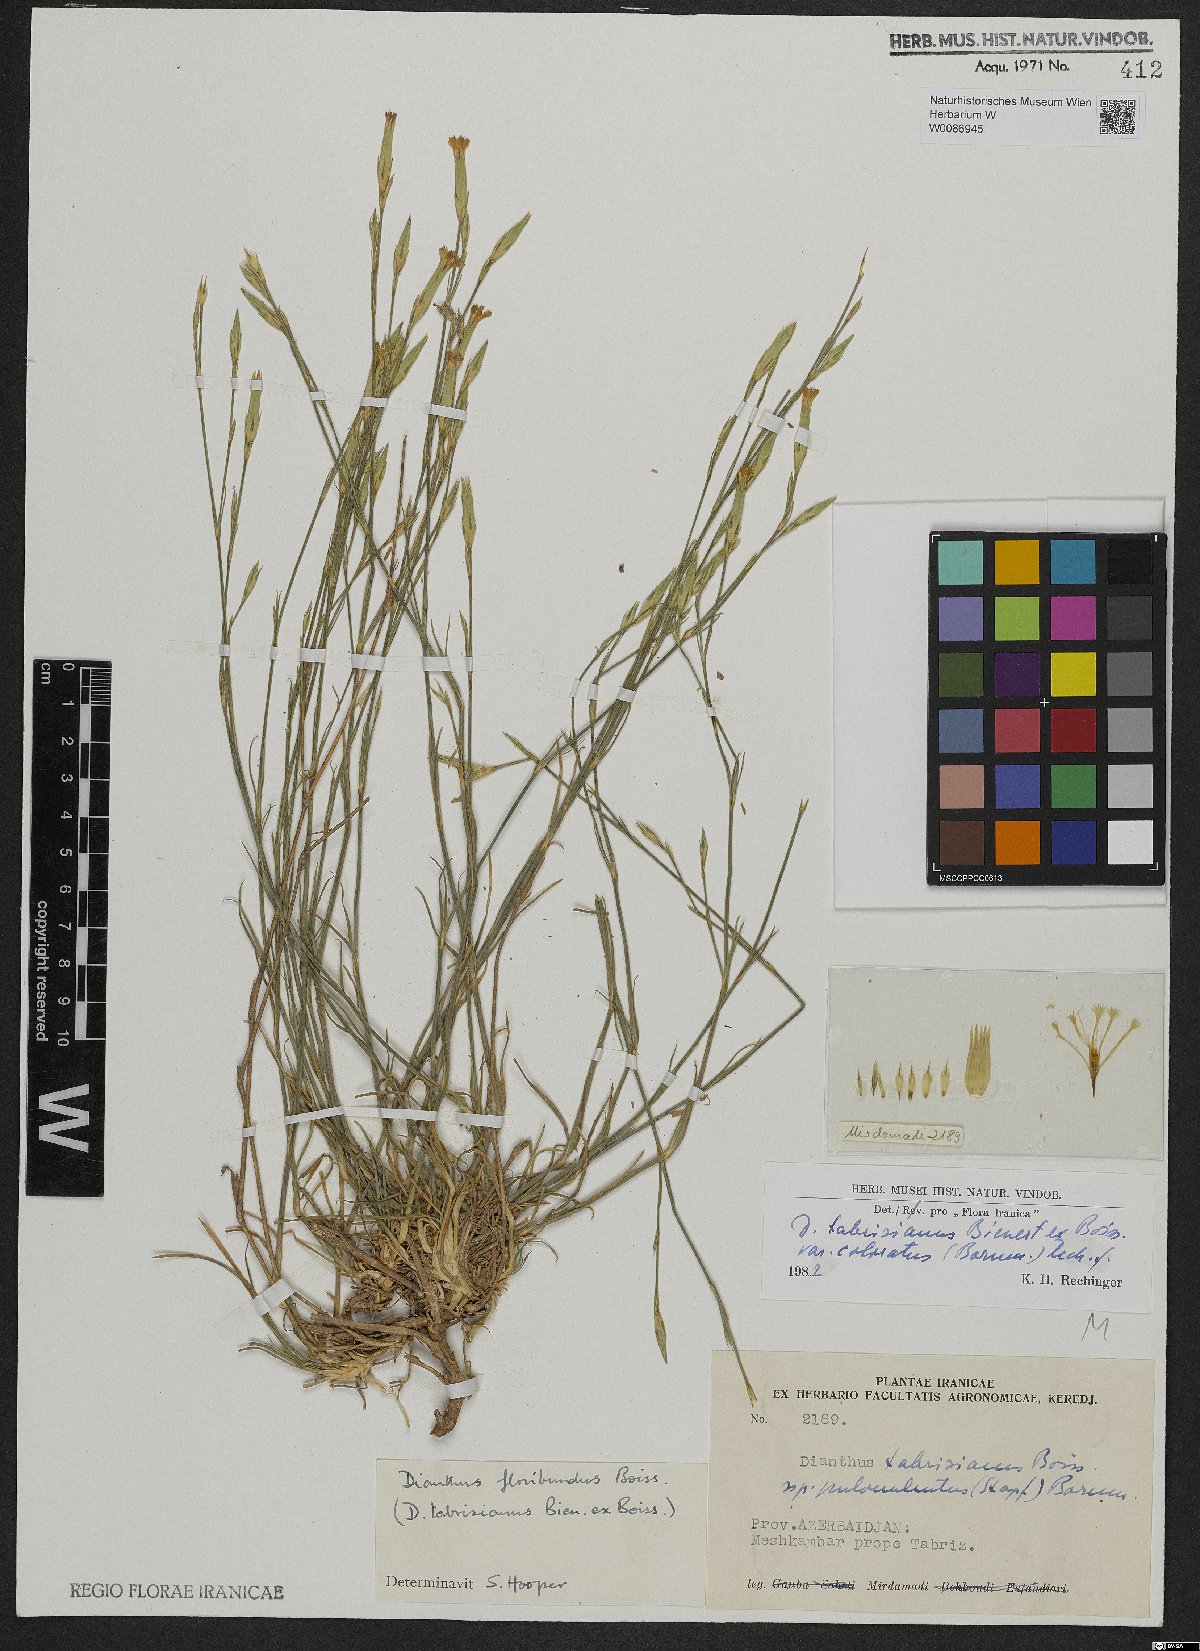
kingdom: Plantae
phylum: Tracheophyta
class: Magnoliopsida
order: Caryophyllales
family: Caryophyllaceae
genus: Dianthus
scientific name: Dianthus tabrisianus
